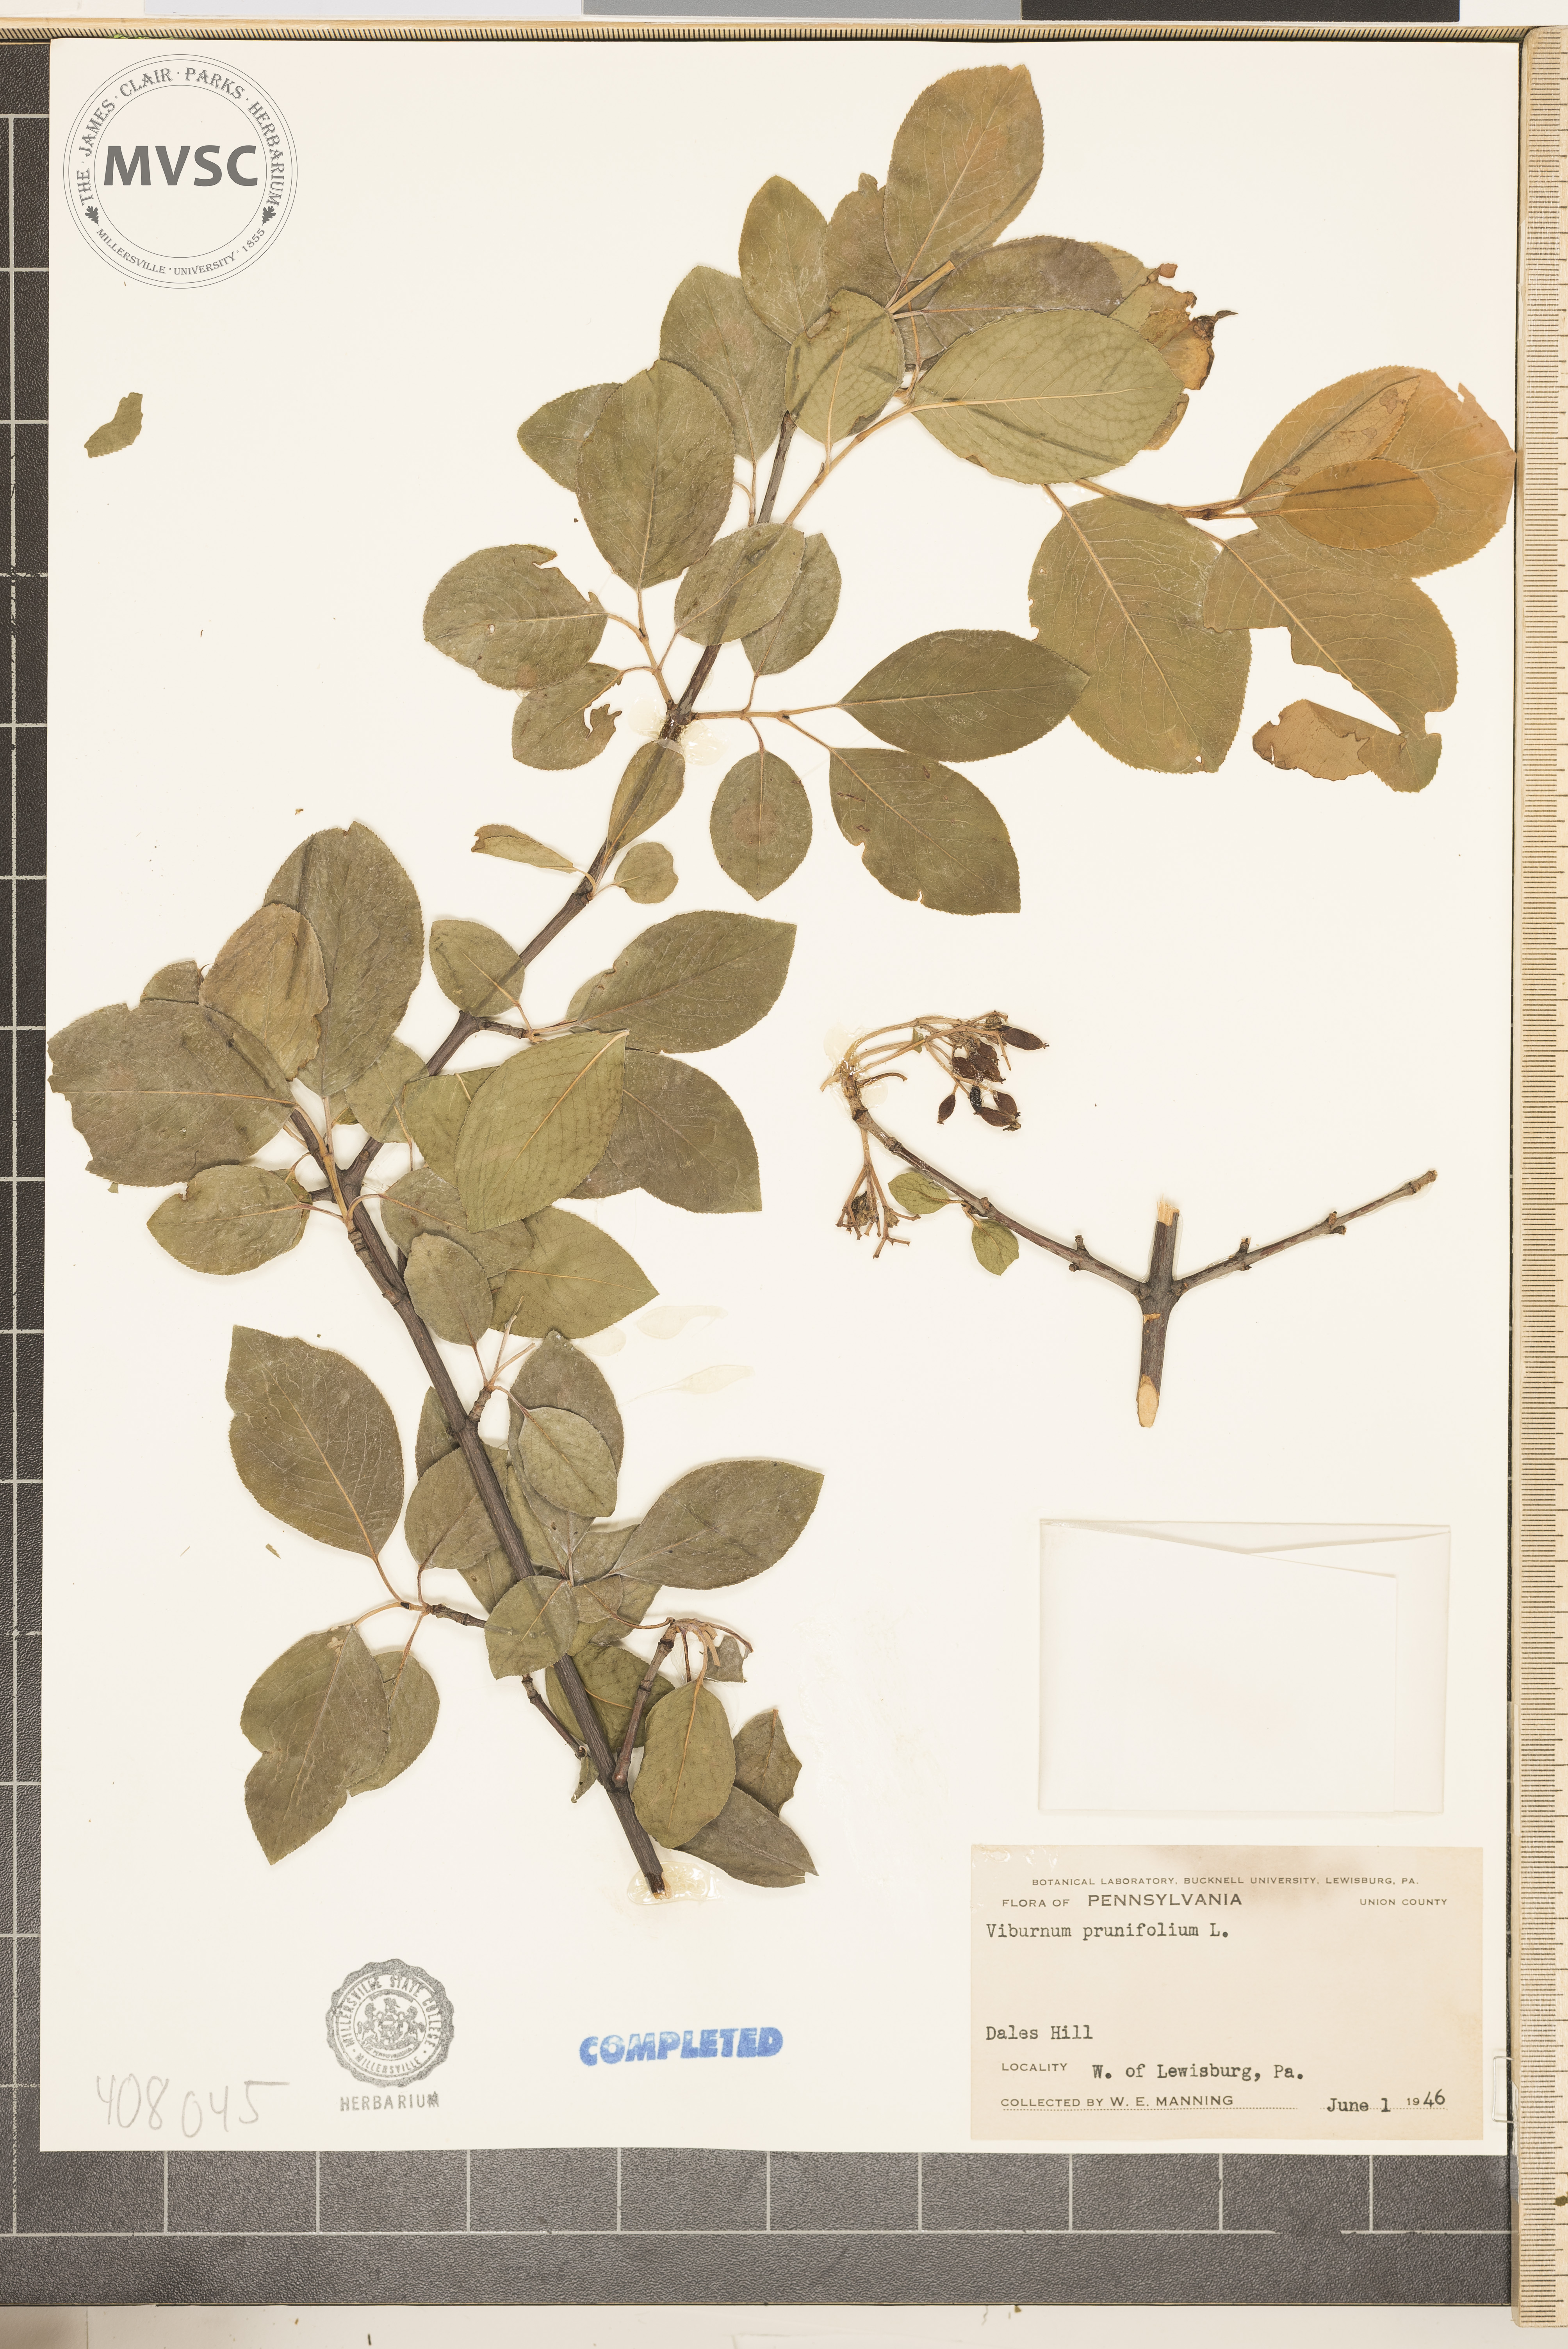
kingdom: Plantae
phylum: Tracheophyta
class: Magnoliopsida
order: Dipsacales
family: Viburnaceae
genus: Viburnum
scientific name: Viburnum prunifolium
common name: blackhaw
